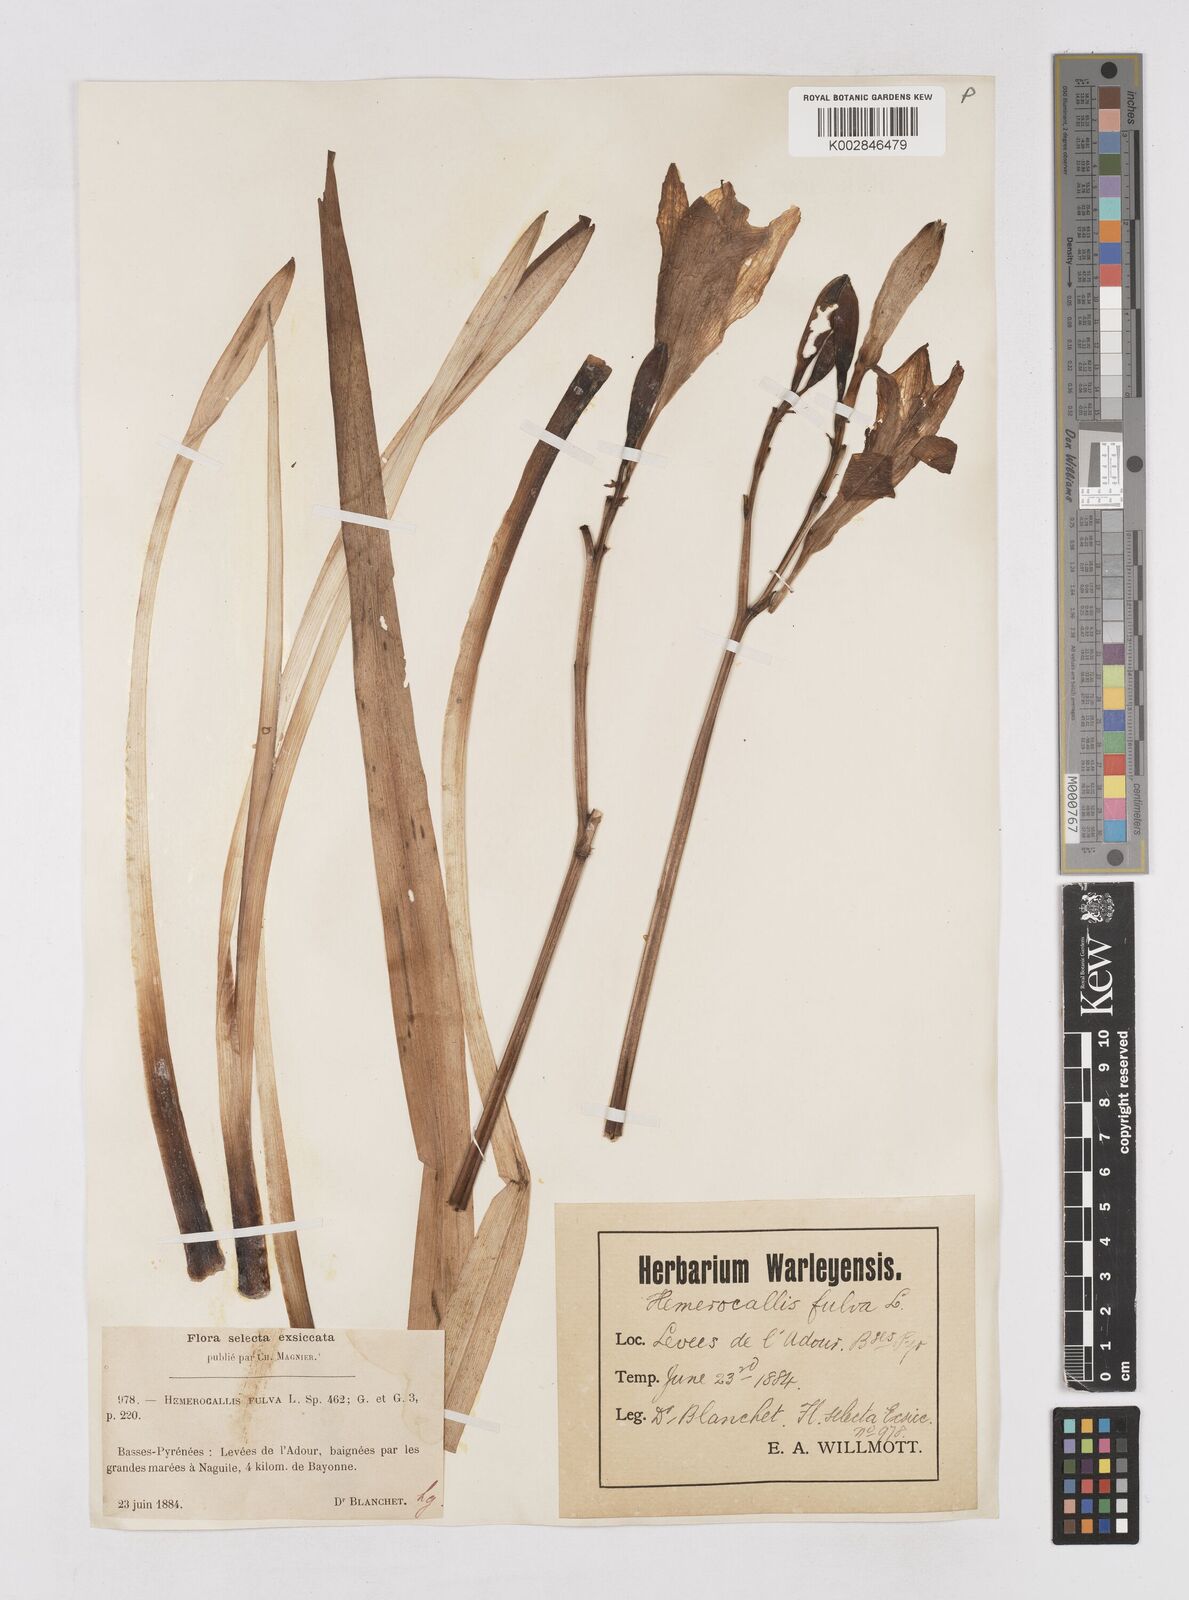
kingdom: Plantae
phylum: Tracheophyta
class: Liliopsida
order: Asparagales
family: Asphodelaceae
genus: Hemerocallis
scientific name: Hemerocallis fulva
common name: Orange day-lily
